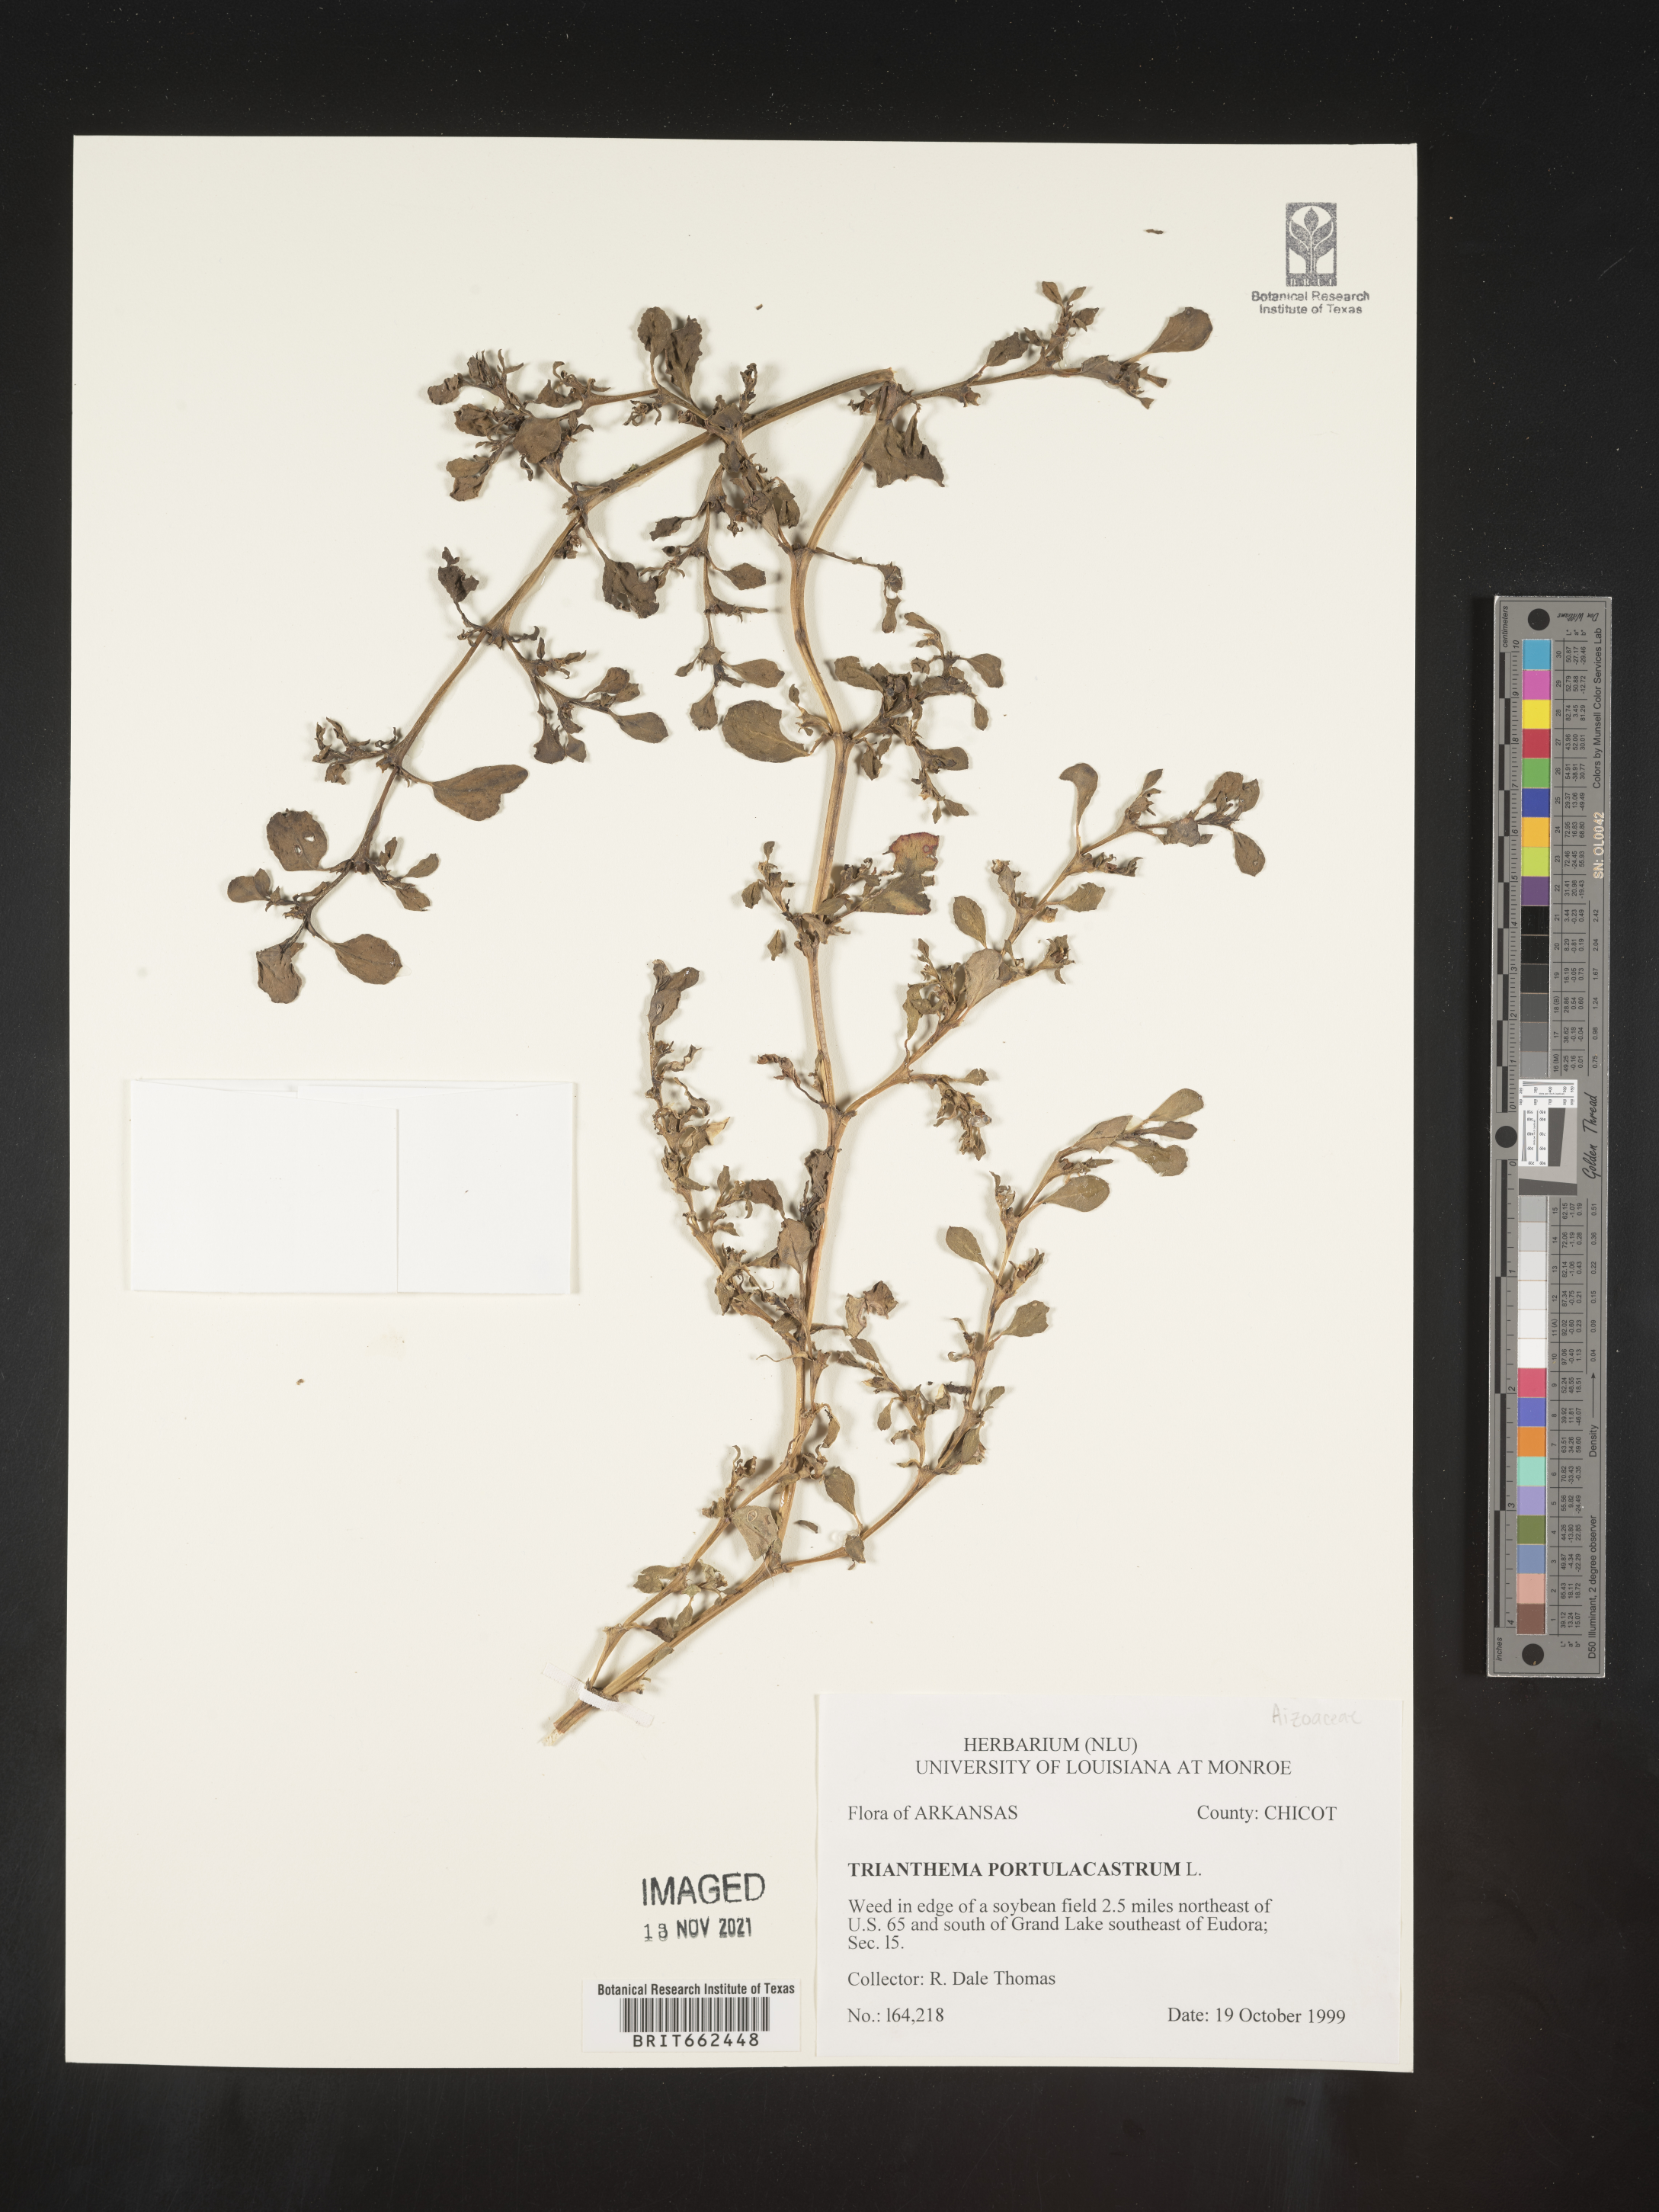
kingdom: Plantae
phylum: Tracheophyta
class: Magnoliopsida
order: Caryophyllales
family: Aizoaceae
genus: Trianthema
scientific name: Trianthema
